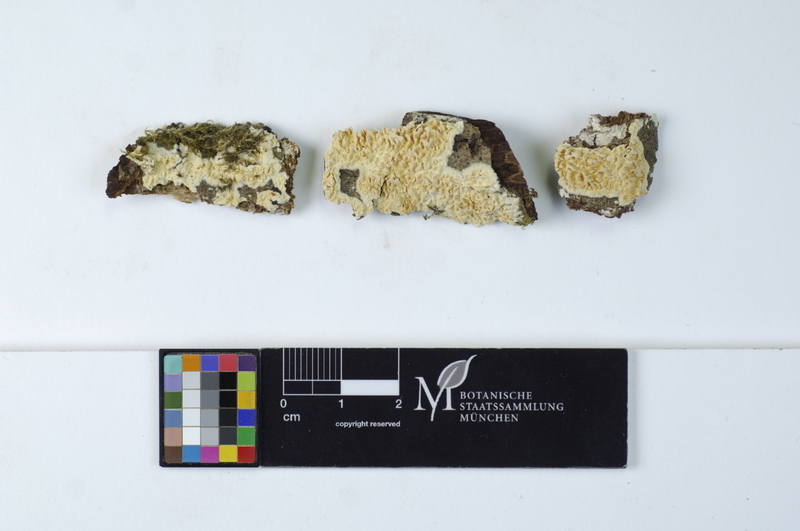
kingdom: Fungi
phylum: Basidiomycota
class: Agaricomycetes
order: Hymenochaetales
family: Schizoporaceae
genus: Xylodon
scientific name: Xylodon radula
